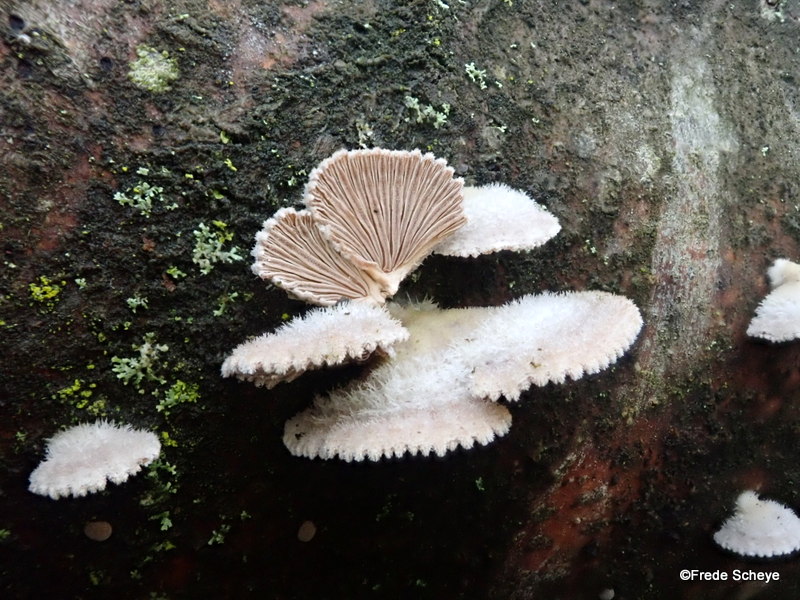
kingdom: Fungi
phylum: Basidiomycota
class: Agaricomycetes
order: Agaricales
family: Schizophyllaceae
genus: Schizophyllum
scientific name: Schizophyllum commune
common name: kløvblad
